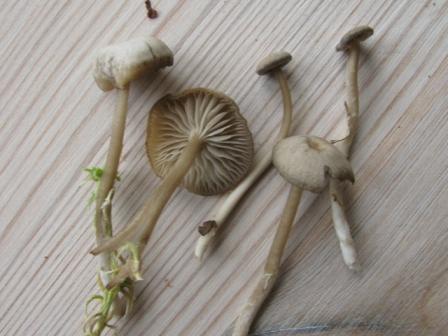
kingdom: Fungi
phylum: Basidiomycota
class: Agaricomycetes
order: Agaricales
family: Lyophyllaceae
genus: Sphagnurus
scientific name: Sphagnurus paluster
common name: tørvemos-gråblad
